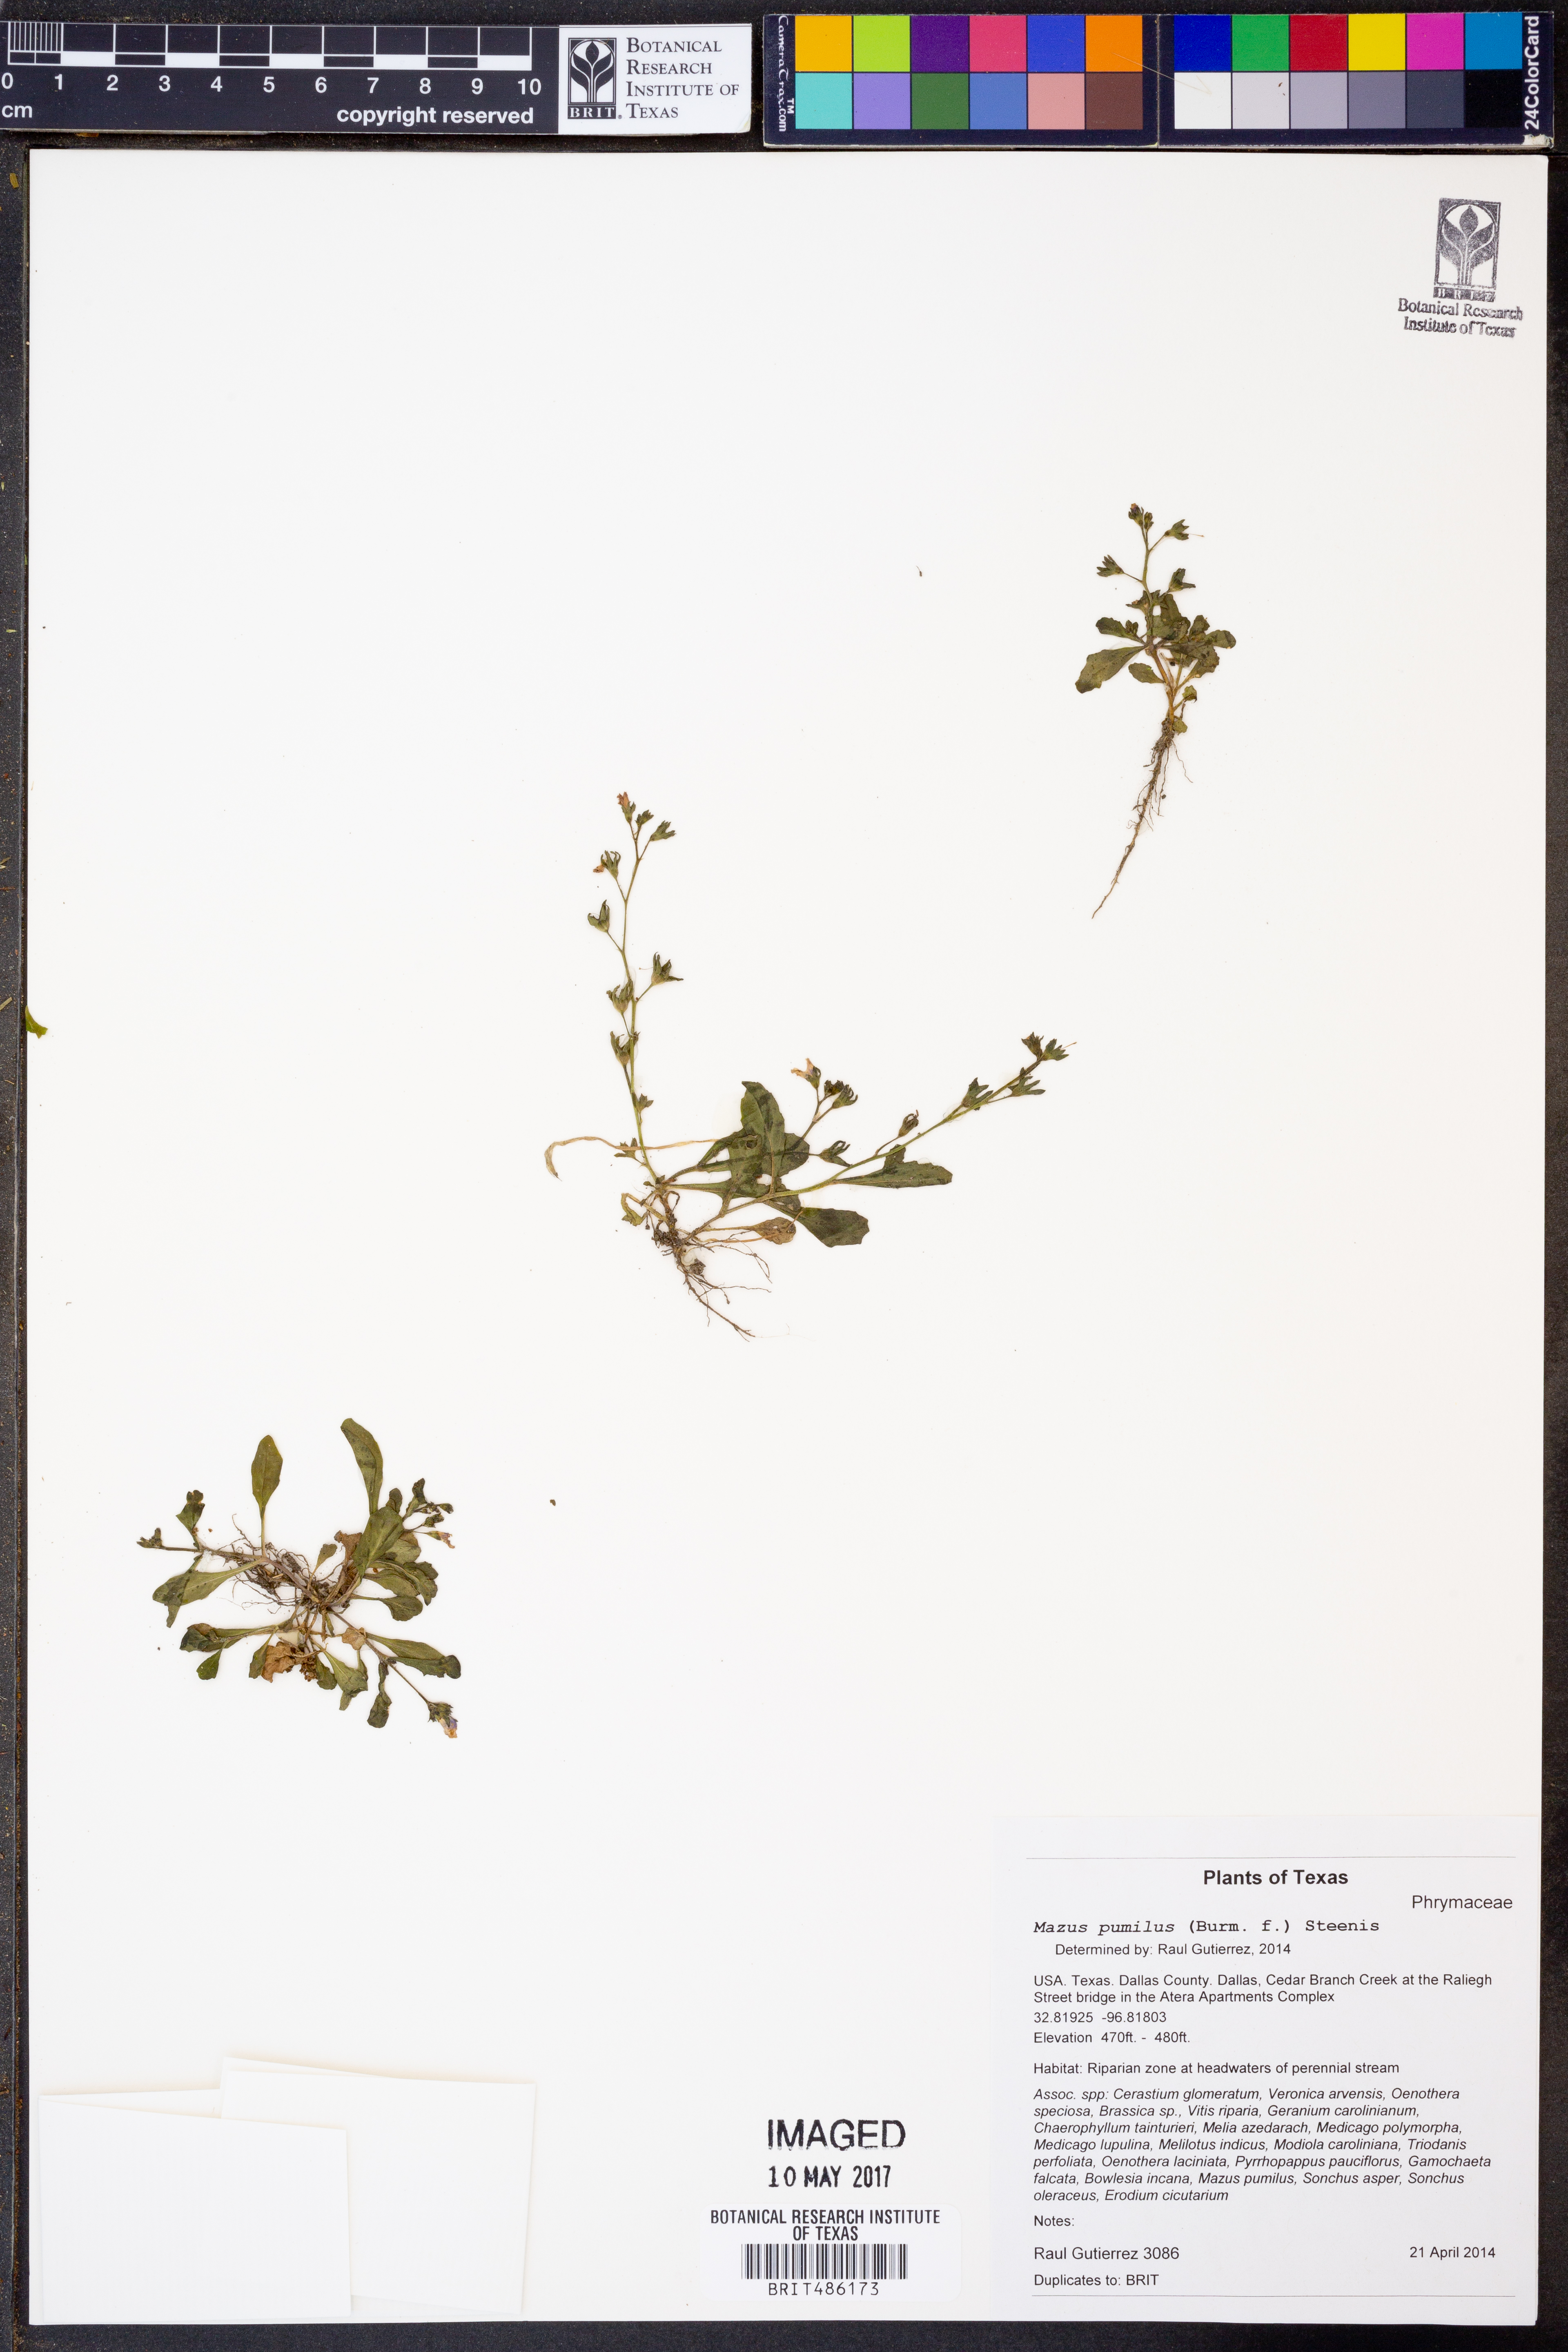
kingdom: Plantae
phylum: Tracheophyta
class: Magnoliopsida
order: Lamiales
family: Mazaceae
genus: Mazus
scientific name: Mazus pumilus
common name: Japanese mazus
